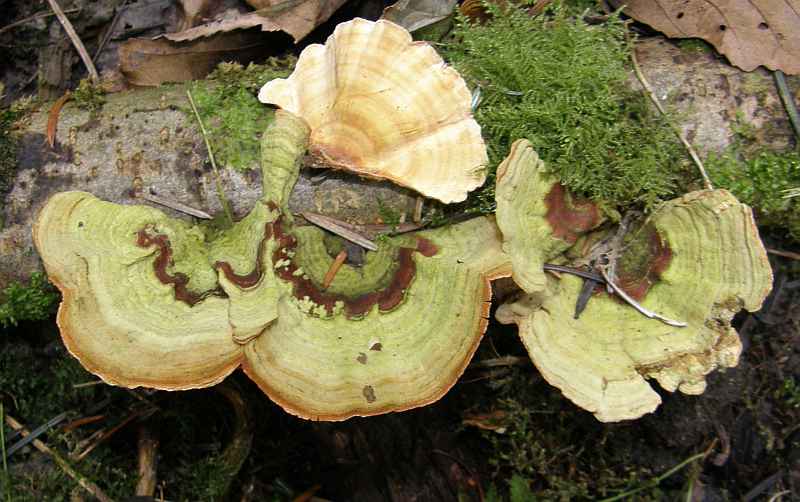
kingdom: Fungi
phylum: Basidiomycota
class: Agaricomycetes
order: Russulales
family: Stereaceae
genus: Stereum
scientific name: Stereum subtomentosum
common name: smuk lædersvamp
